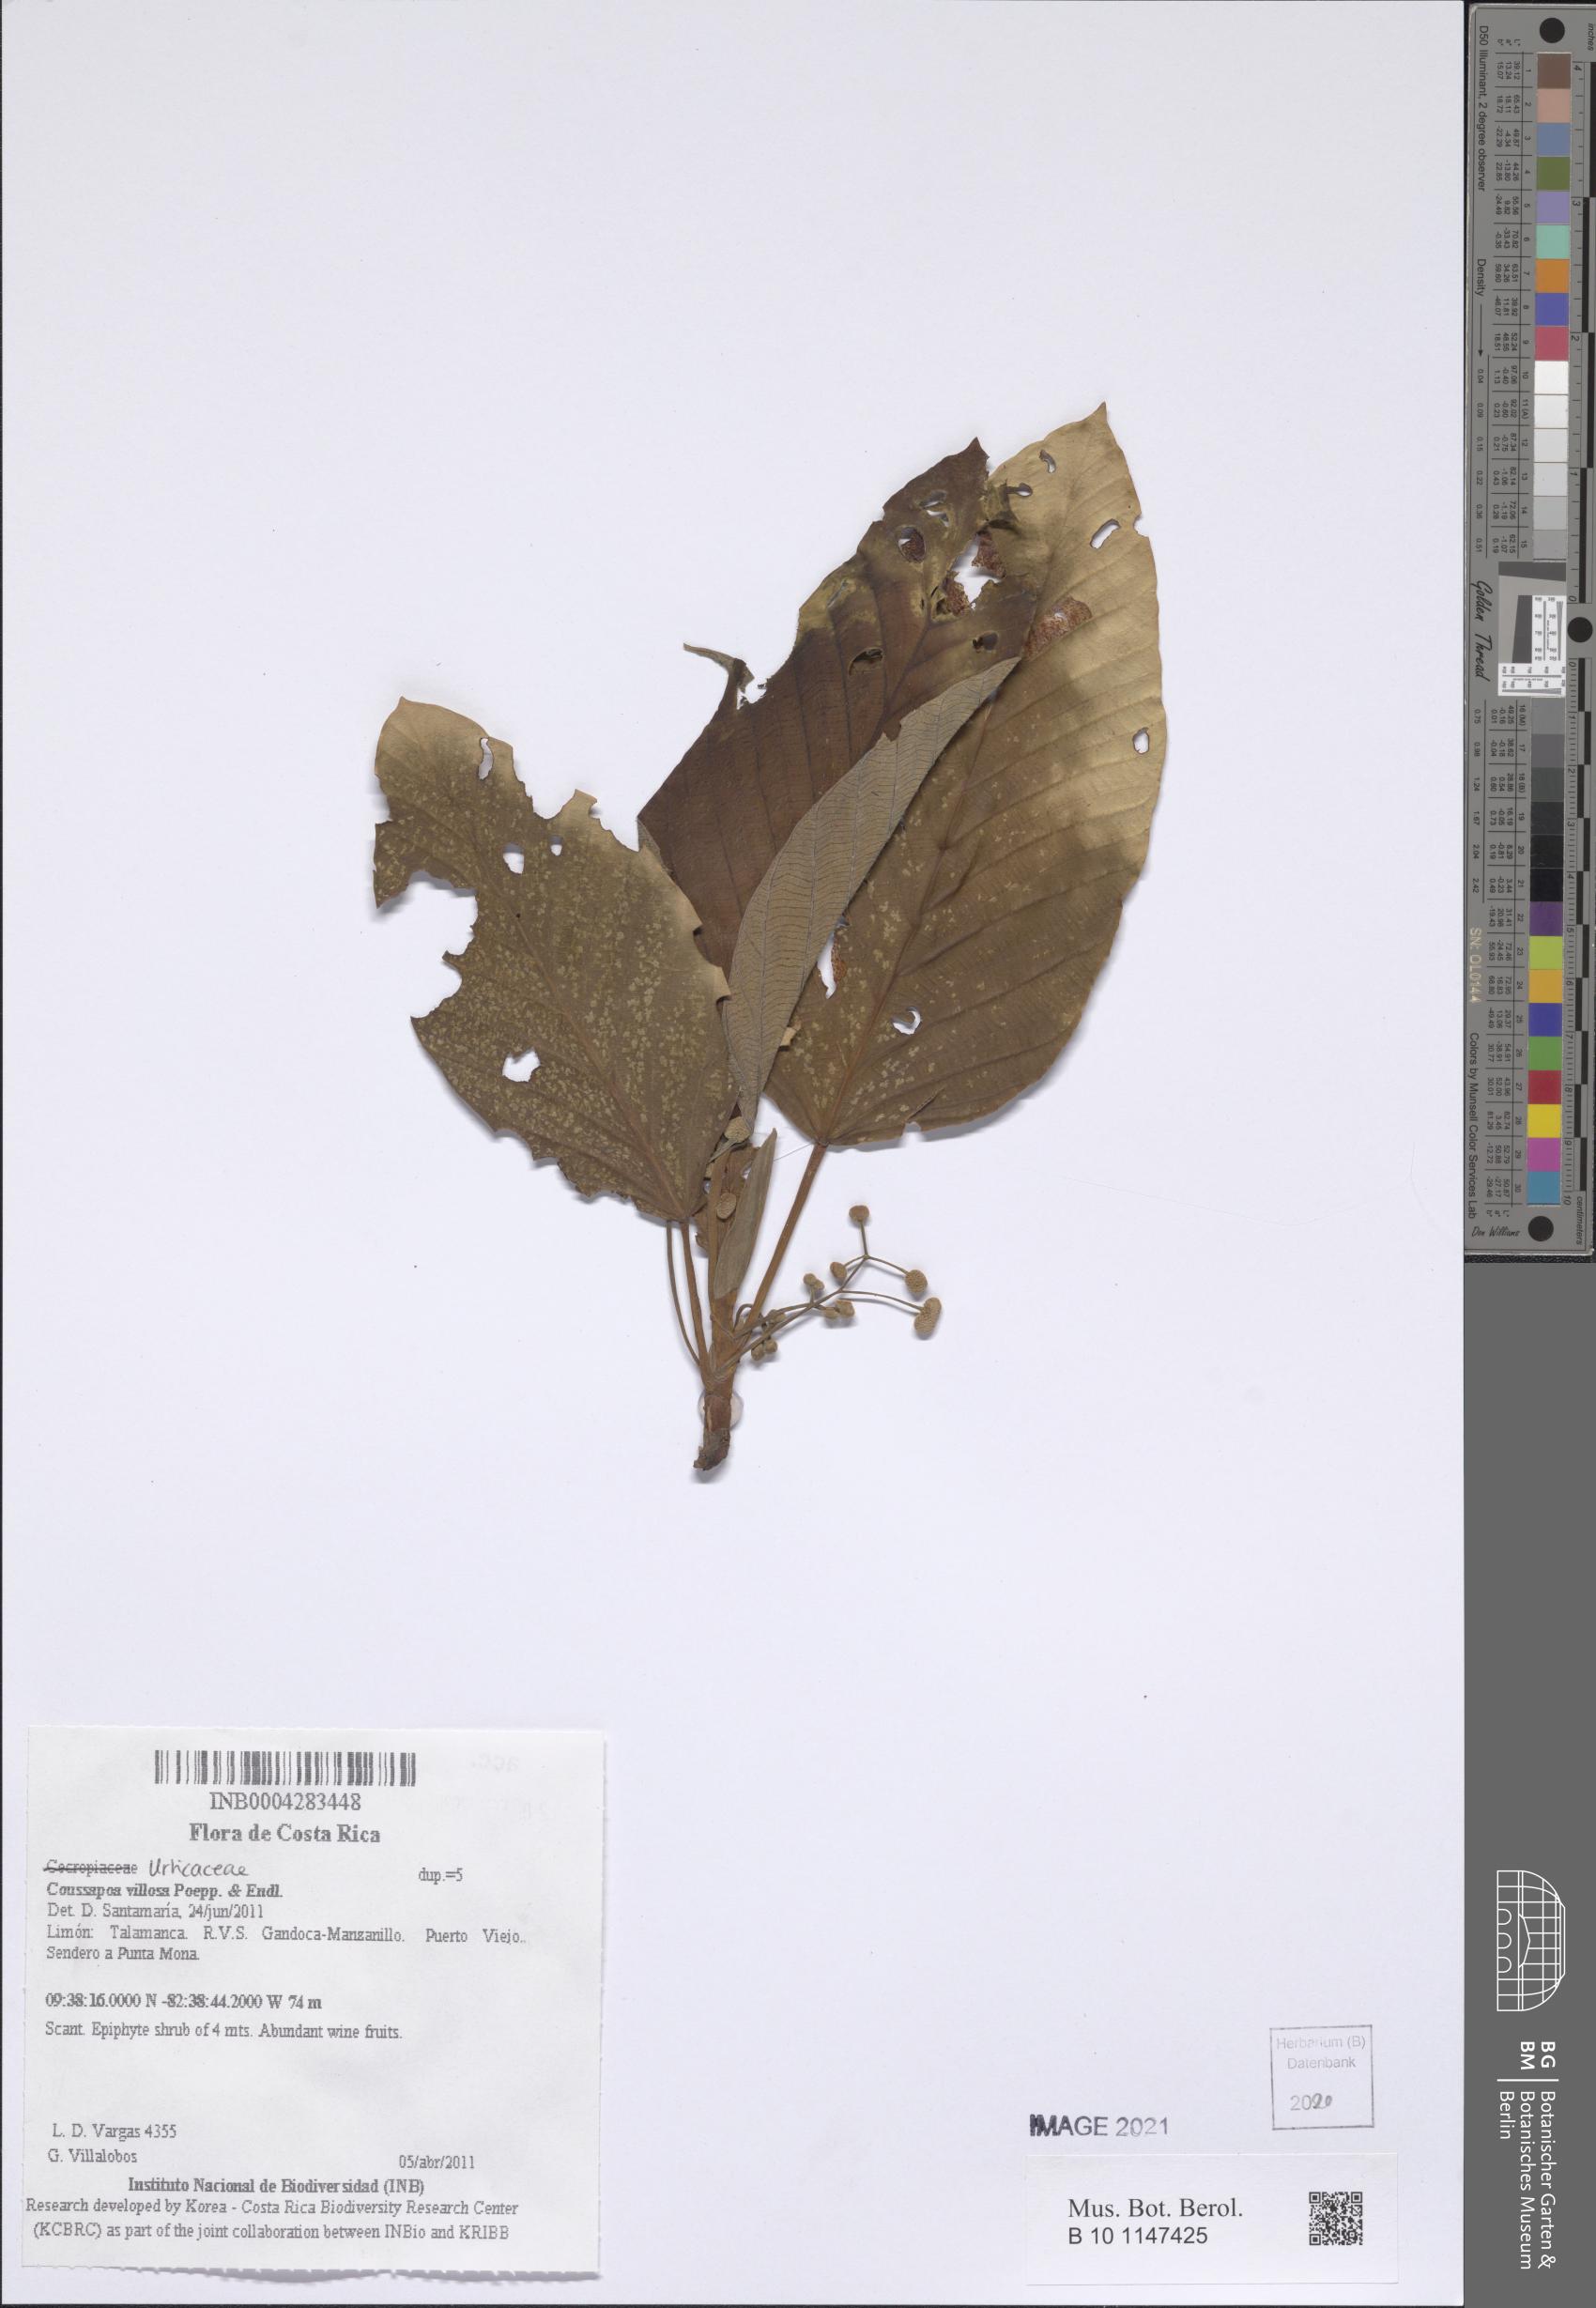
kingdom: Plantae
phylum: Tracheophyta
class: Magnoliopsida
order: Rosales
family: Urticaceae
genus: Coussapoa
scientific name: Coussapoa villosa
